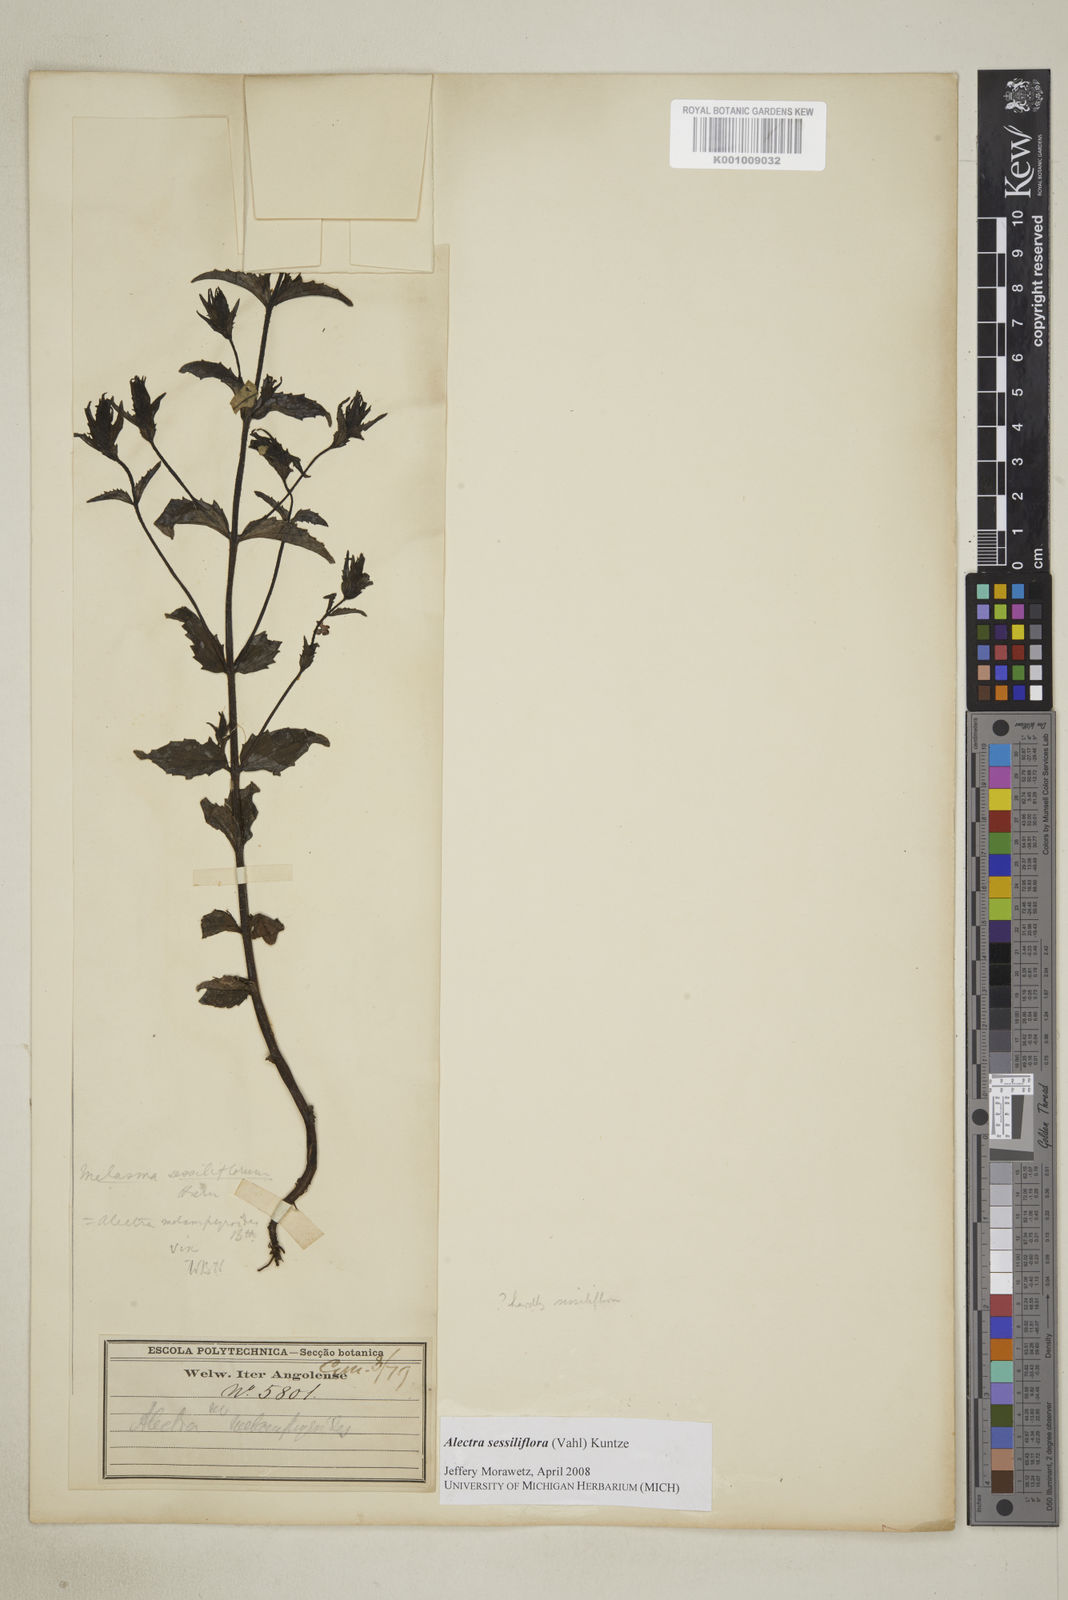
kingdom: Plantae
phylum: Tracheophyta
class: Magnoliopsida
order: Lamiales
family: Orobanchaceae
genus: Alectra
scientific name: Alectra sessiliflora
